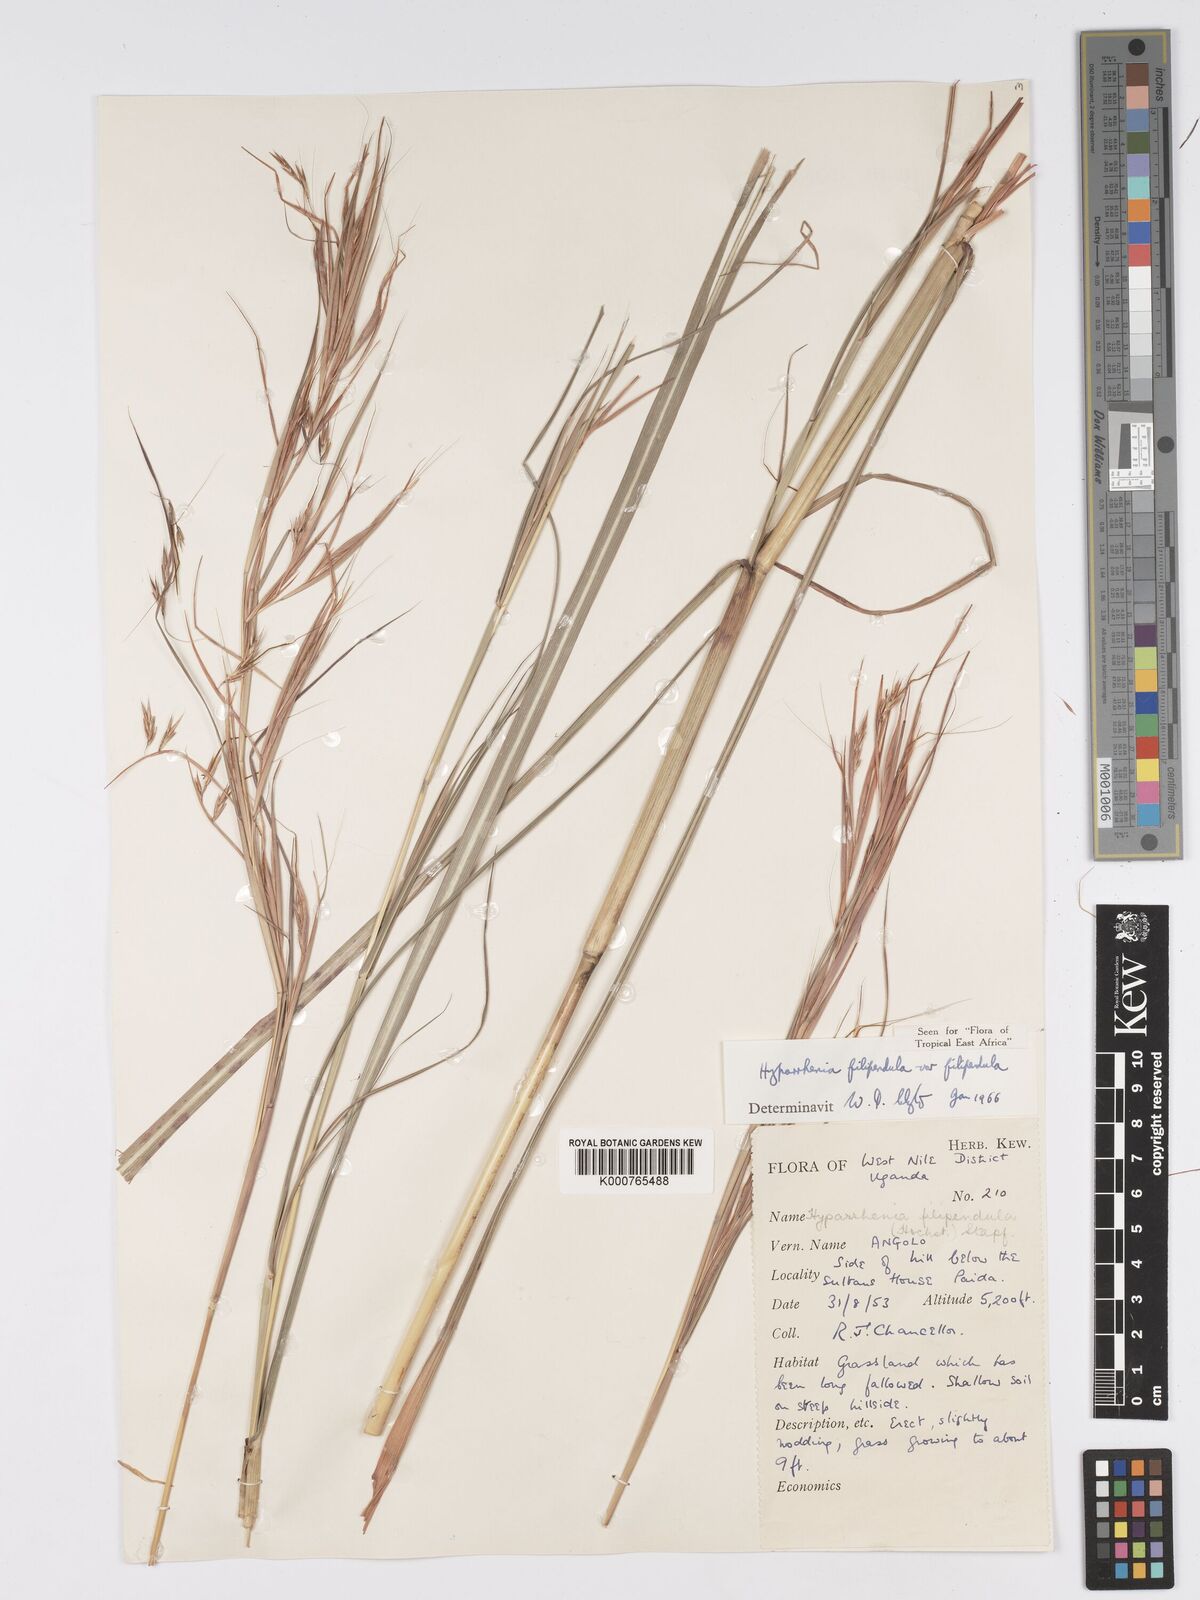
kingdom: Plantae
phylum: Tracheophyta
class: Liliopsida
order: Poales
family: Poaceae
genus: Hyparrhenia
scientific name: Hyparrhenia filipendula
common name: Tambookie grass
